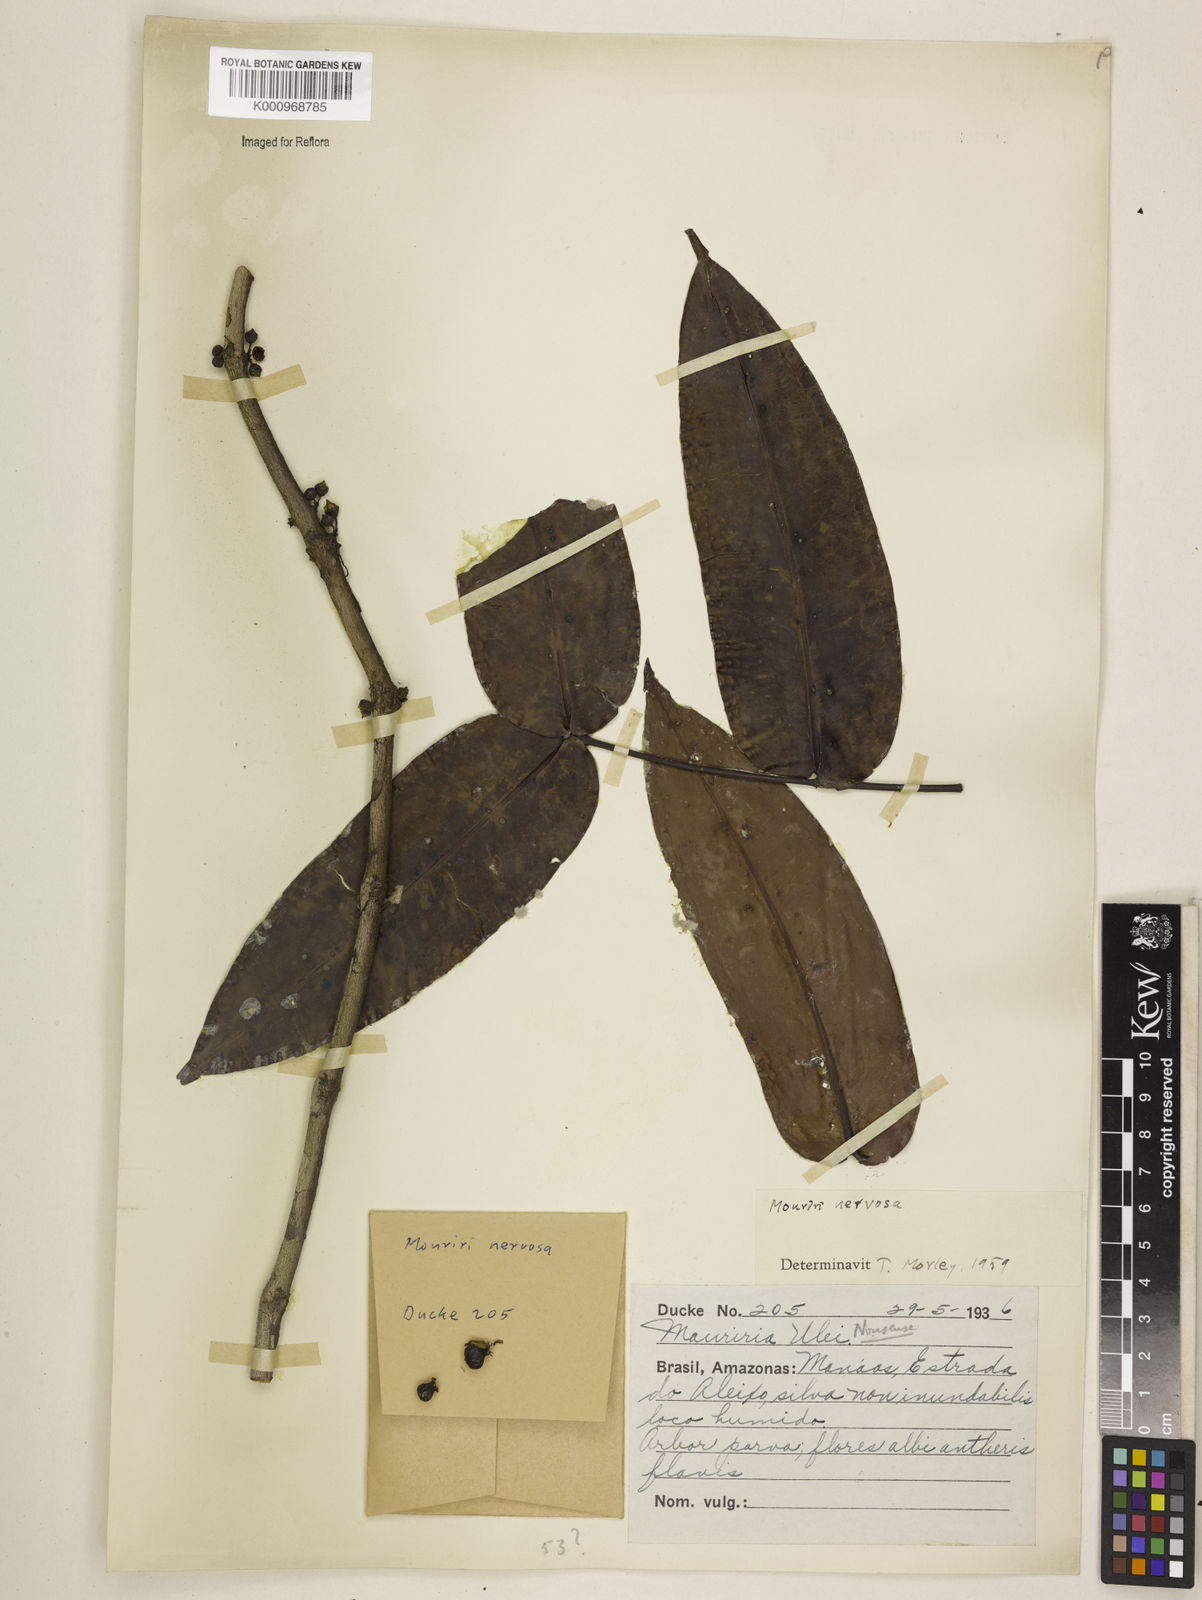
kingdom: Plantae
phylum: Tracheophyta
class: Magnoliopsida
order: Myrtales
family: Melastomataceae
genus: Mouriri
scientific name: Mouriri sideroxylon
